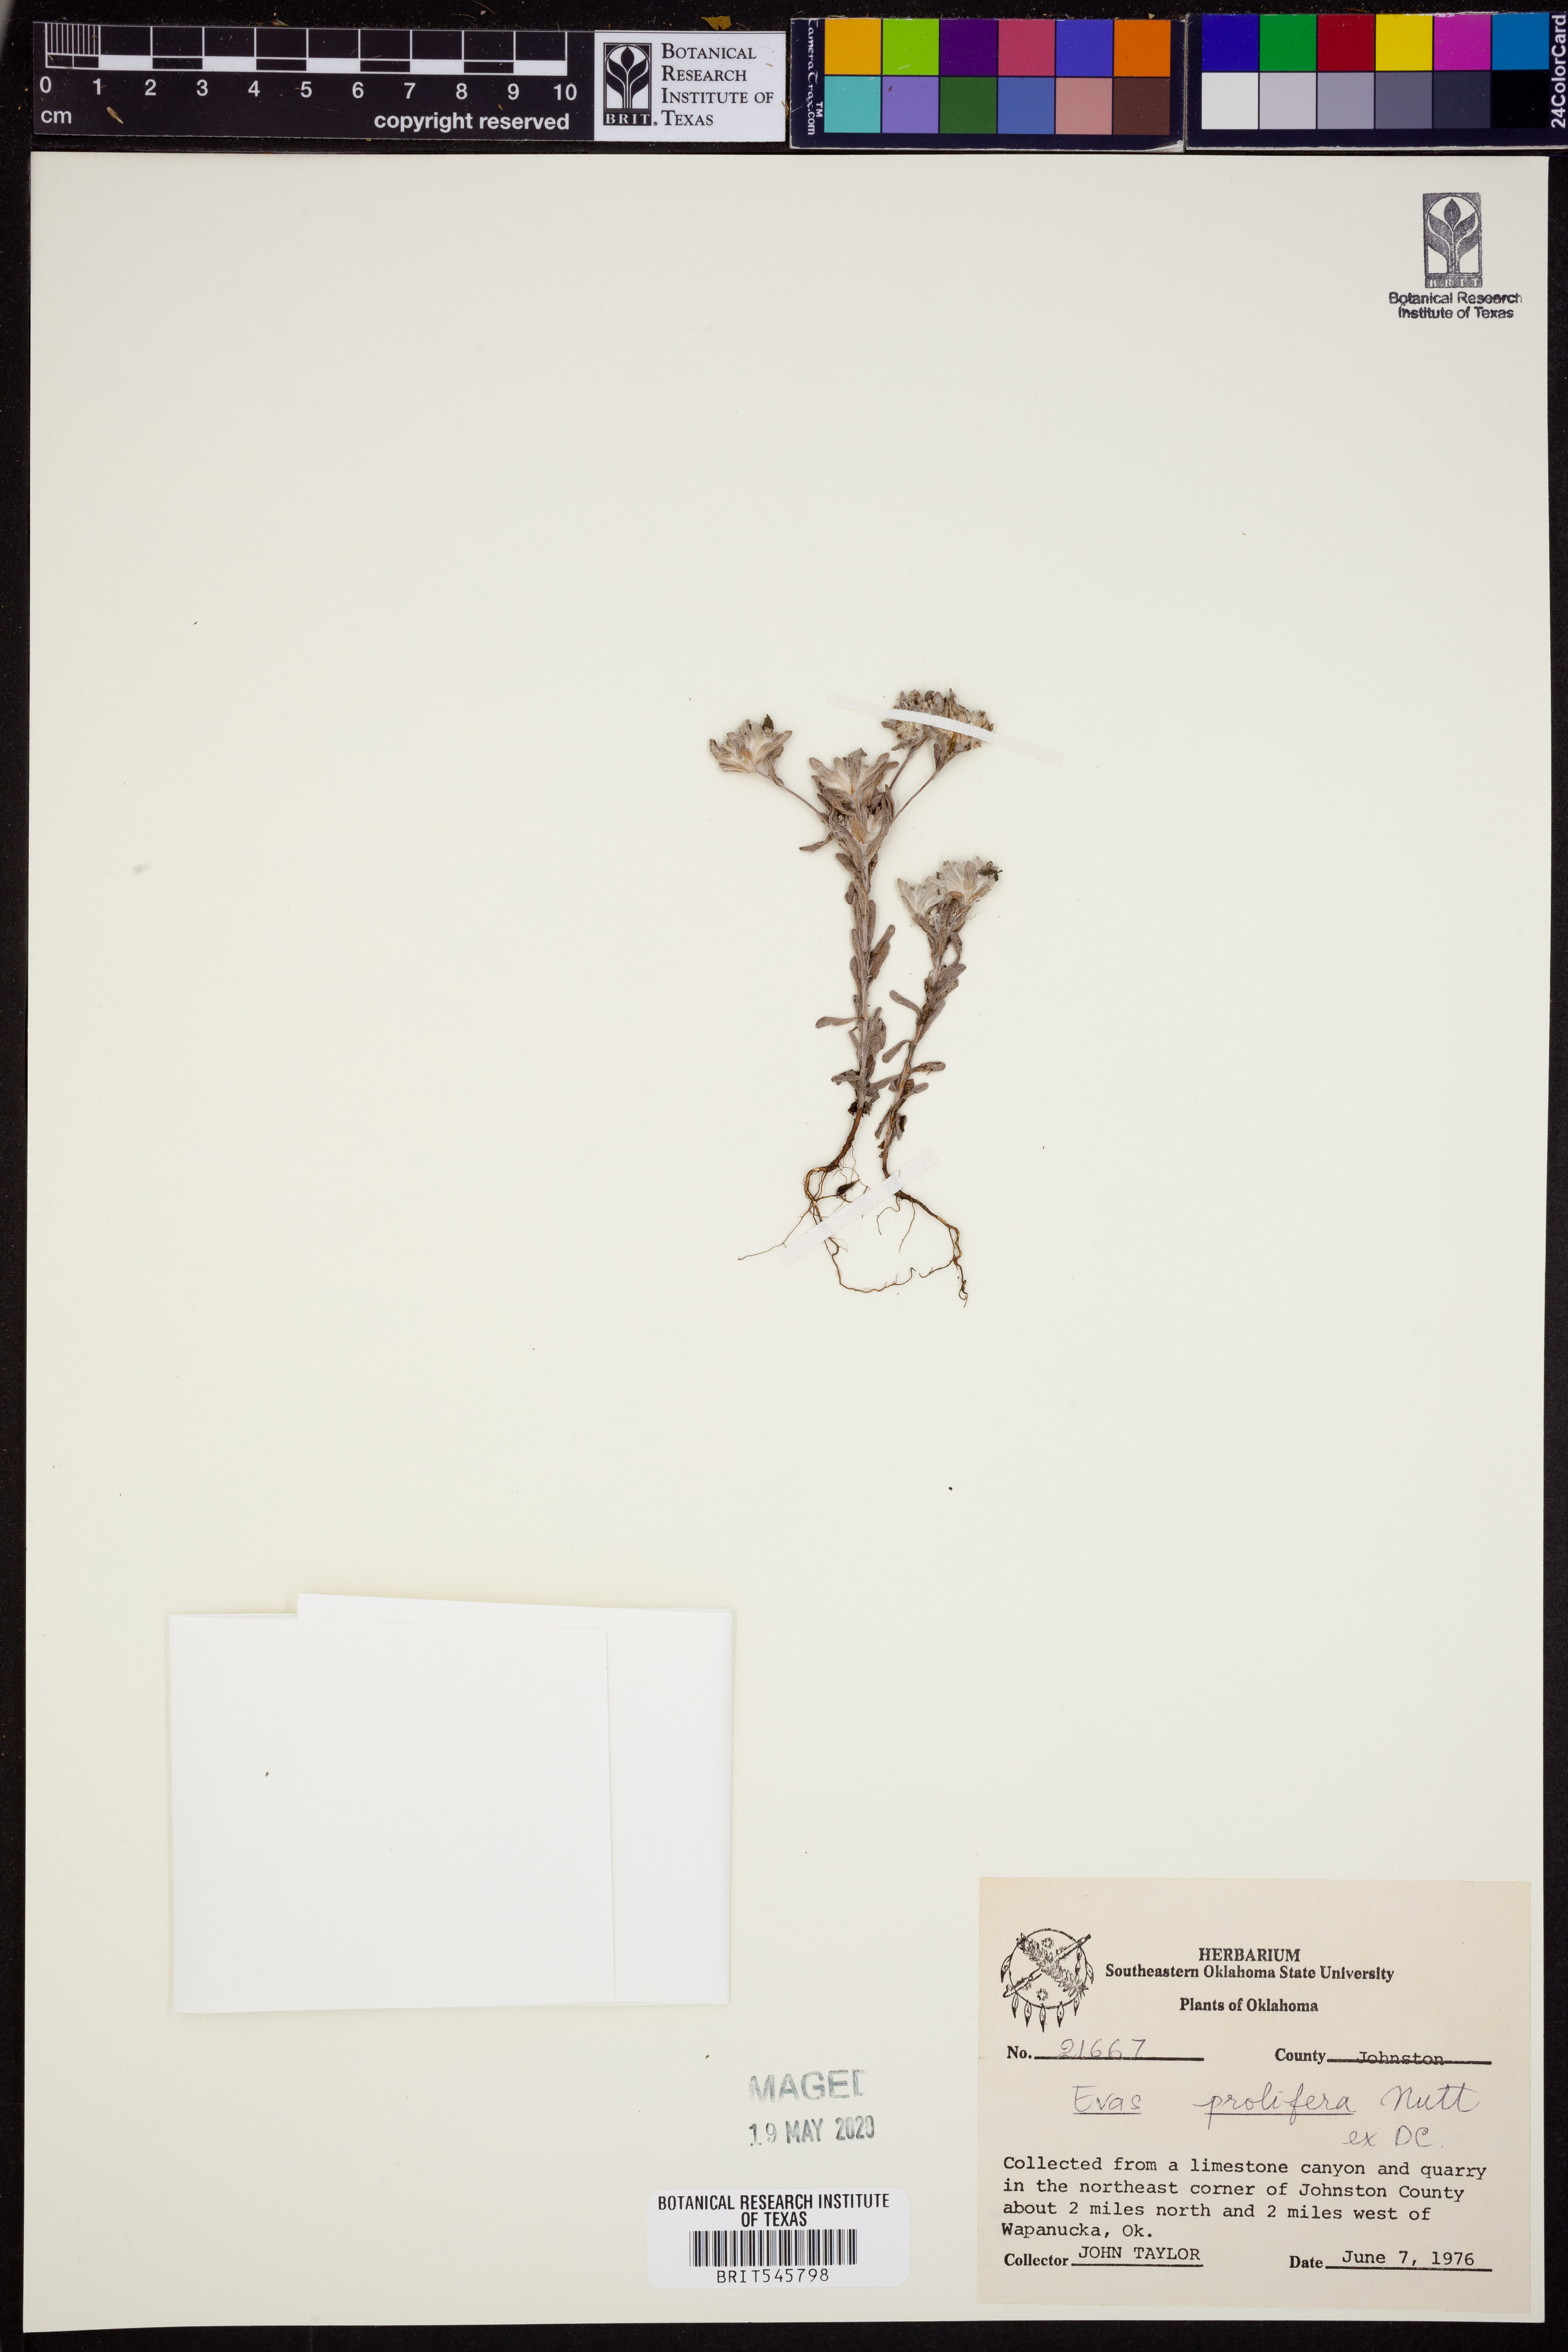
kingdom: Plantae
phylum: Tracheophyta
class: Magnoliopsida
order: Asterales
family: Asteraceae
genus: Diaperia
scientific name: Diaperia prolifera
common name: Big-head rabbit-tobacco
